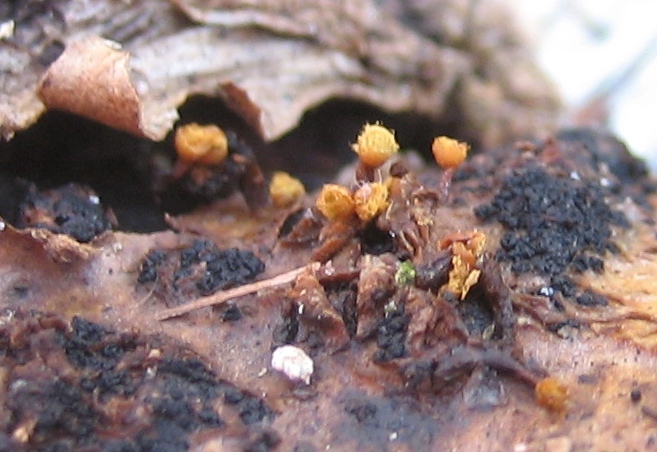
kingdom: Protozoa
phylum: Mycetozoa
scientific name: Mycetozoa
